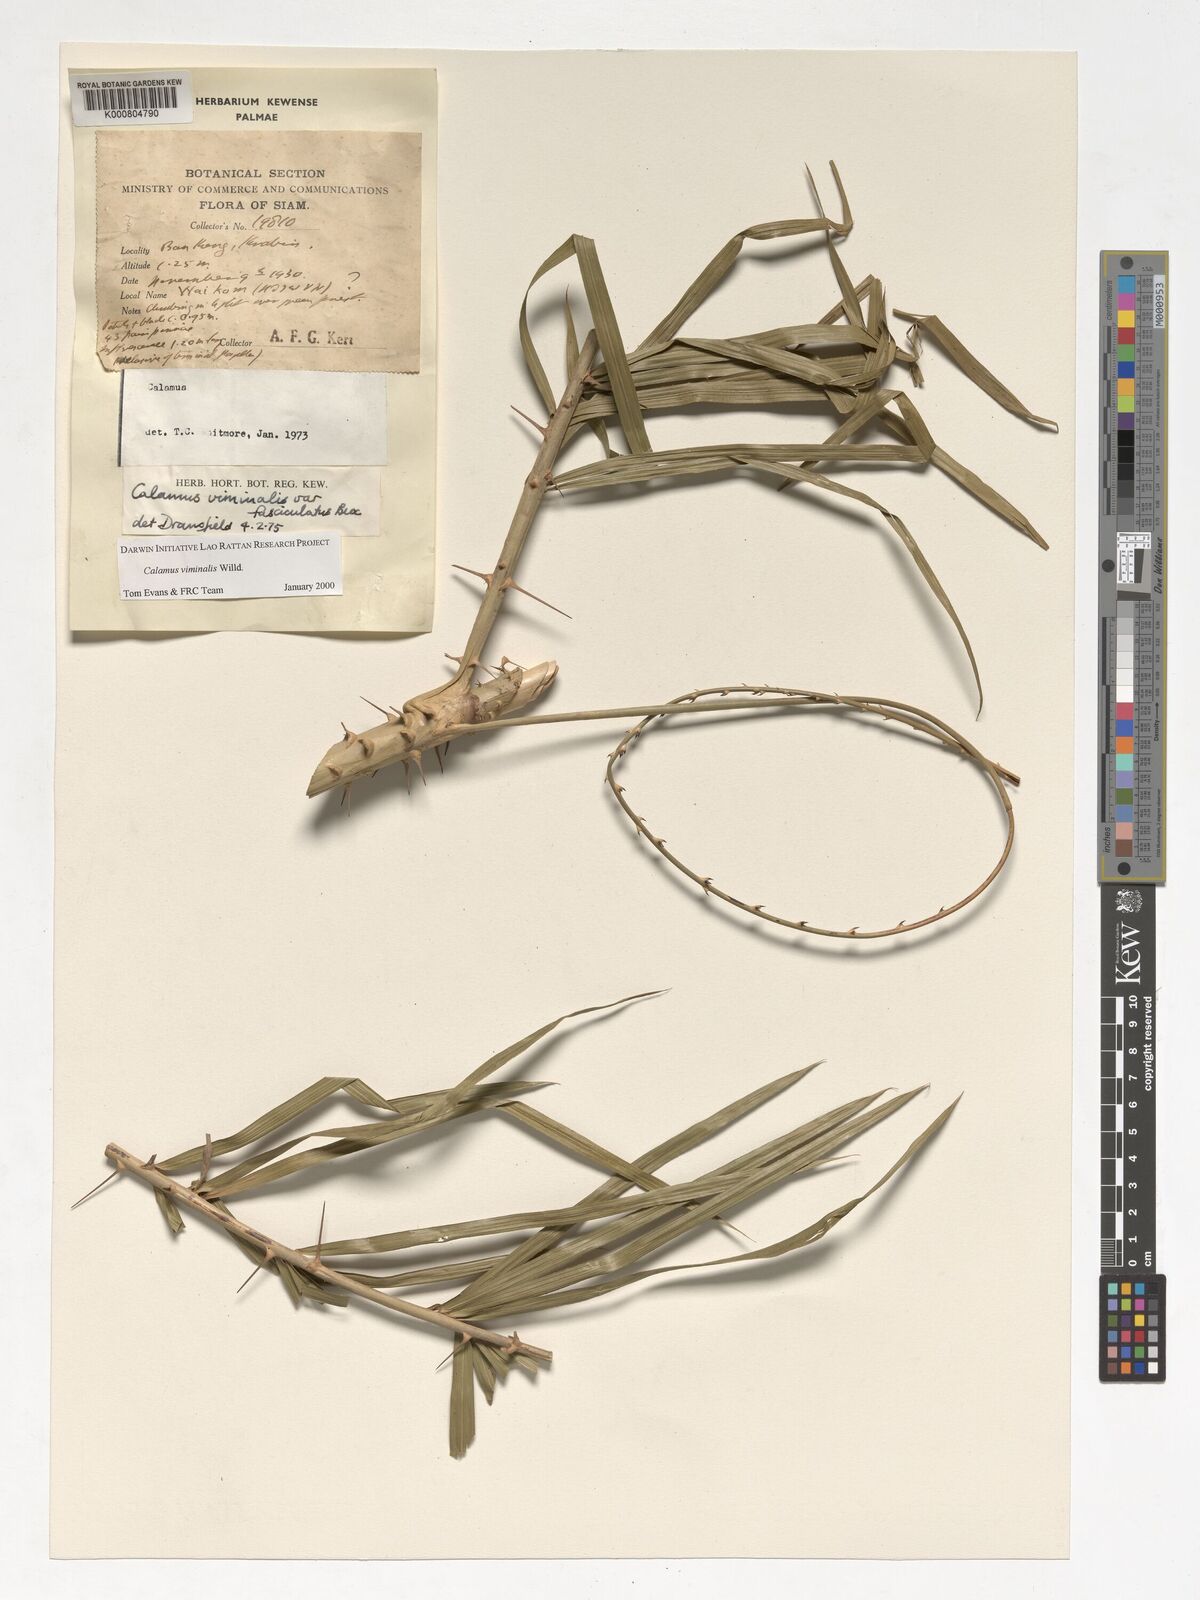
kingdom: Plantae
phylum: Tracheophyta
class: Liliopsida
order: Arecales
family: Arecaceae
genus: Calamus
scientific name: Calamus viminalis
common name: Osier-like rattan palm
